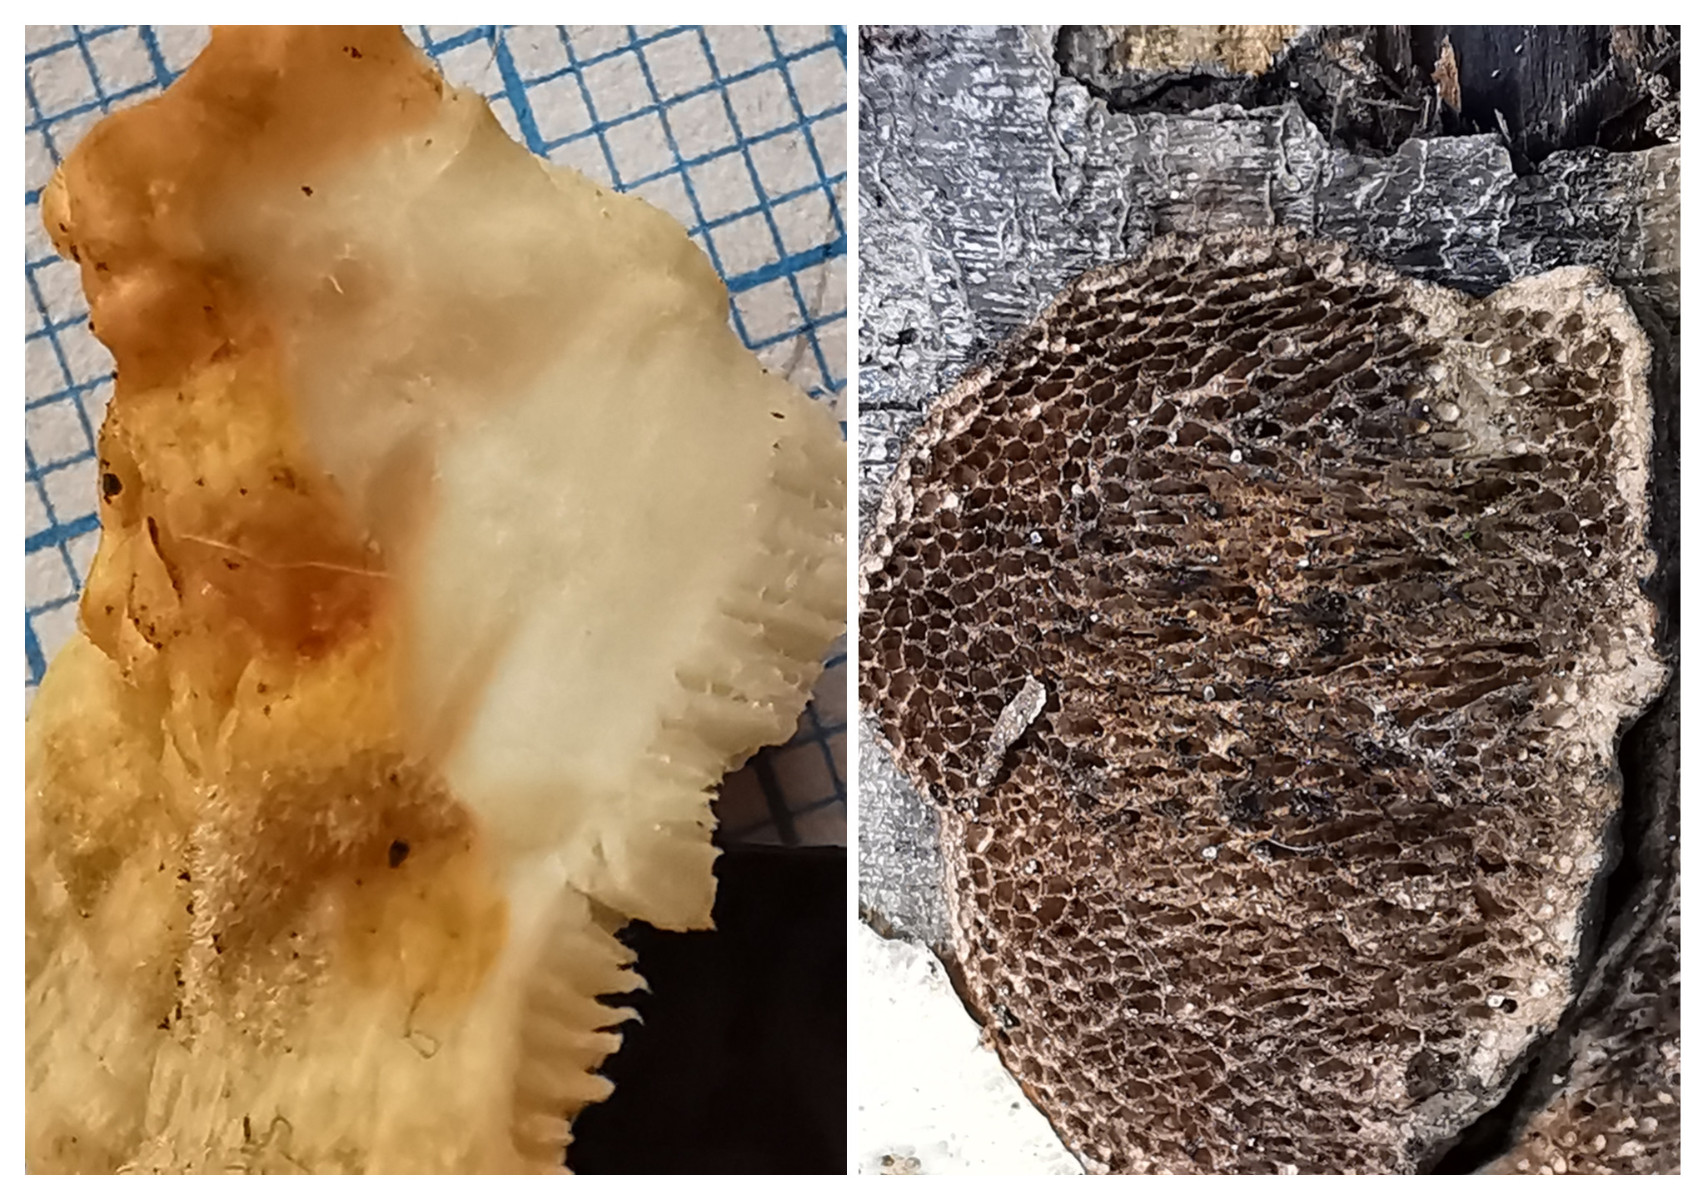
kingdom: Fungi
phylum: Basidiomycota
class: Agaricomycetes
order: Polyporales
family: Polyporaceae
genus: Trametes
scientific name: Trametes
